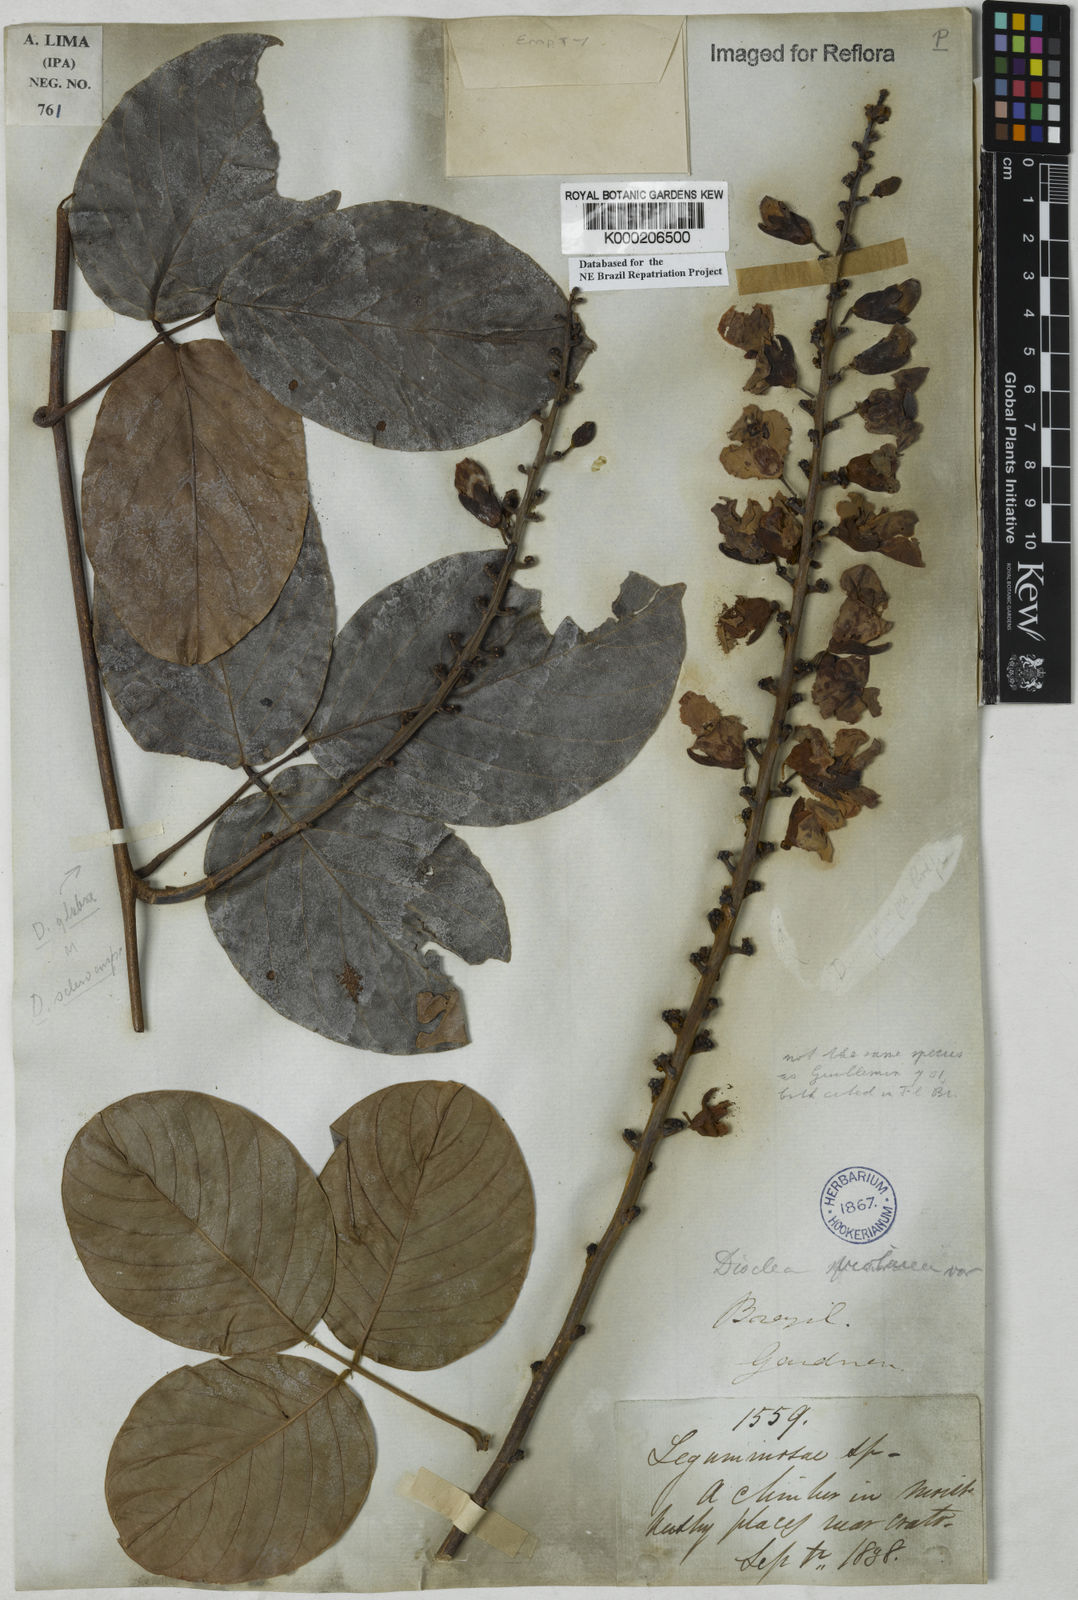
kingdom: Plantae
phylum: Tracheophyta
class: Magnoliopsida
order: Fabales
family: Fabaceae
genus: Macropsychanthus
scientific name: Macropsychanthus violaceus
